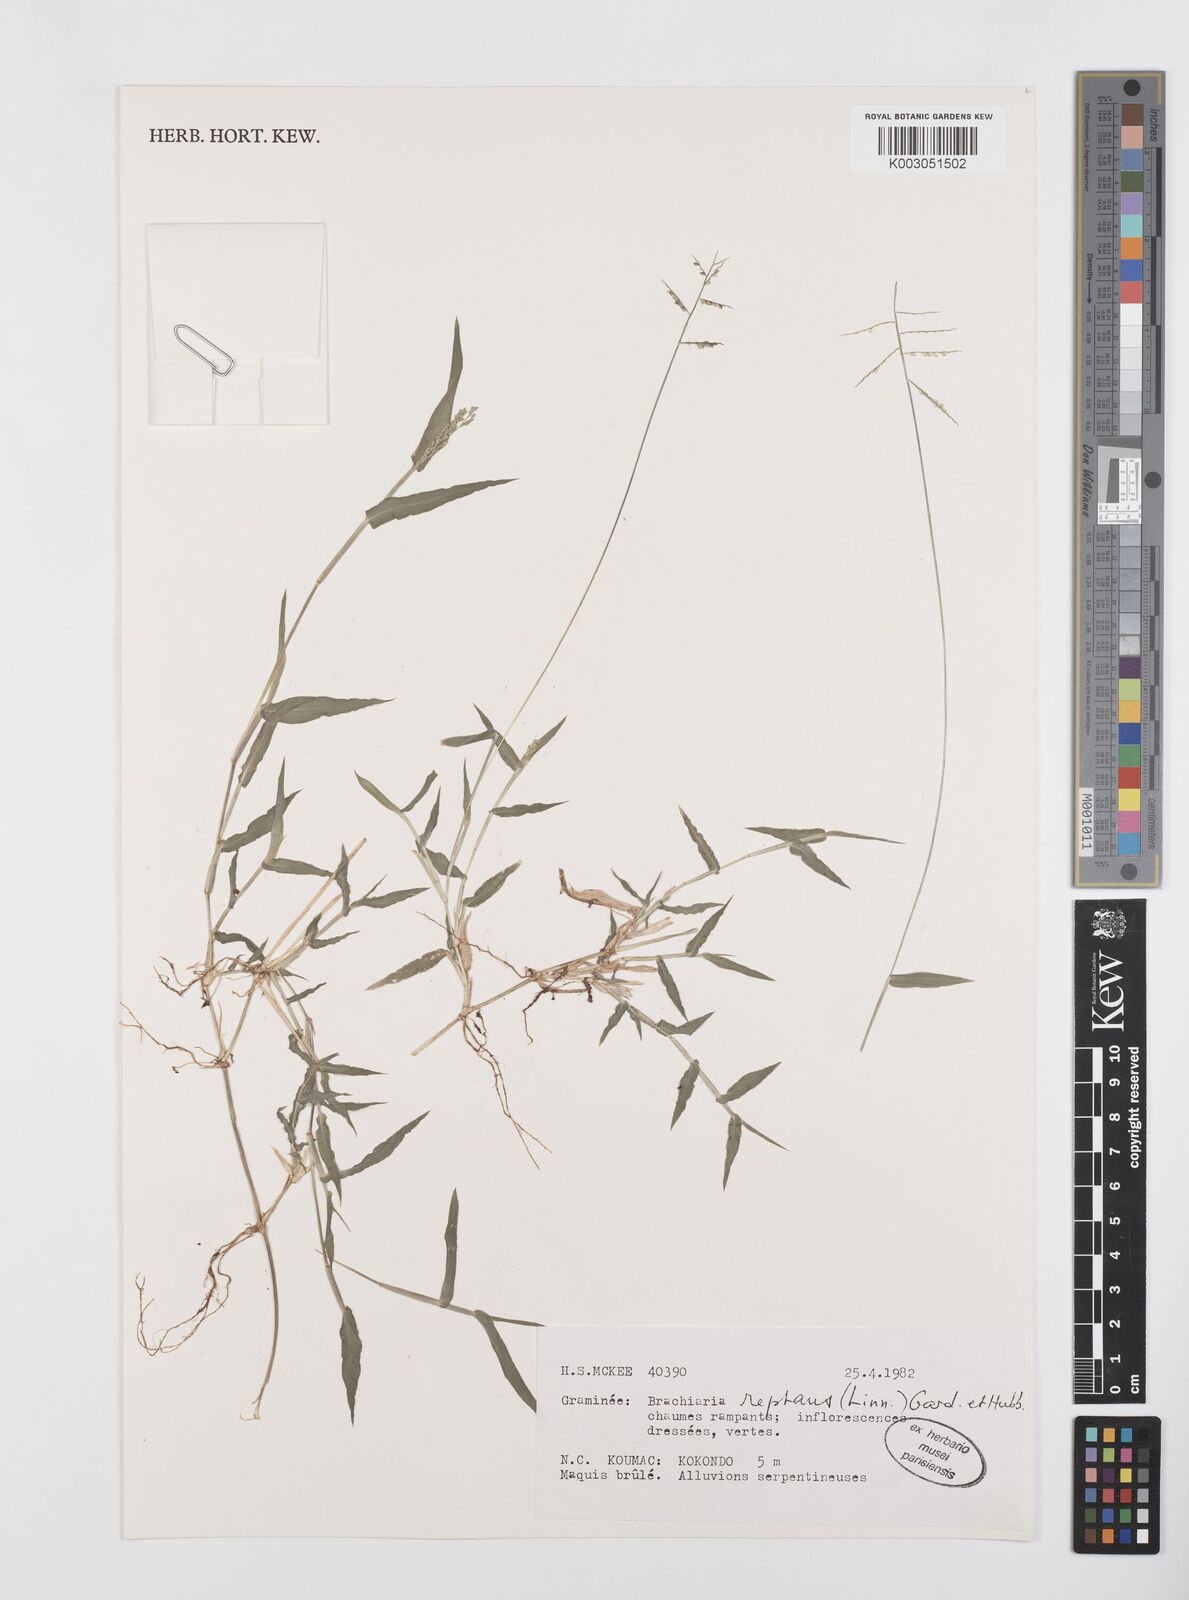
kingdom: Plantae
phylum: Tracheophyta
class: Liliopsida
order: Poales
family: Poaceae
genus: Urochloa
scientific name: Urochloa reptans
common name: Sprawling signalgrass
